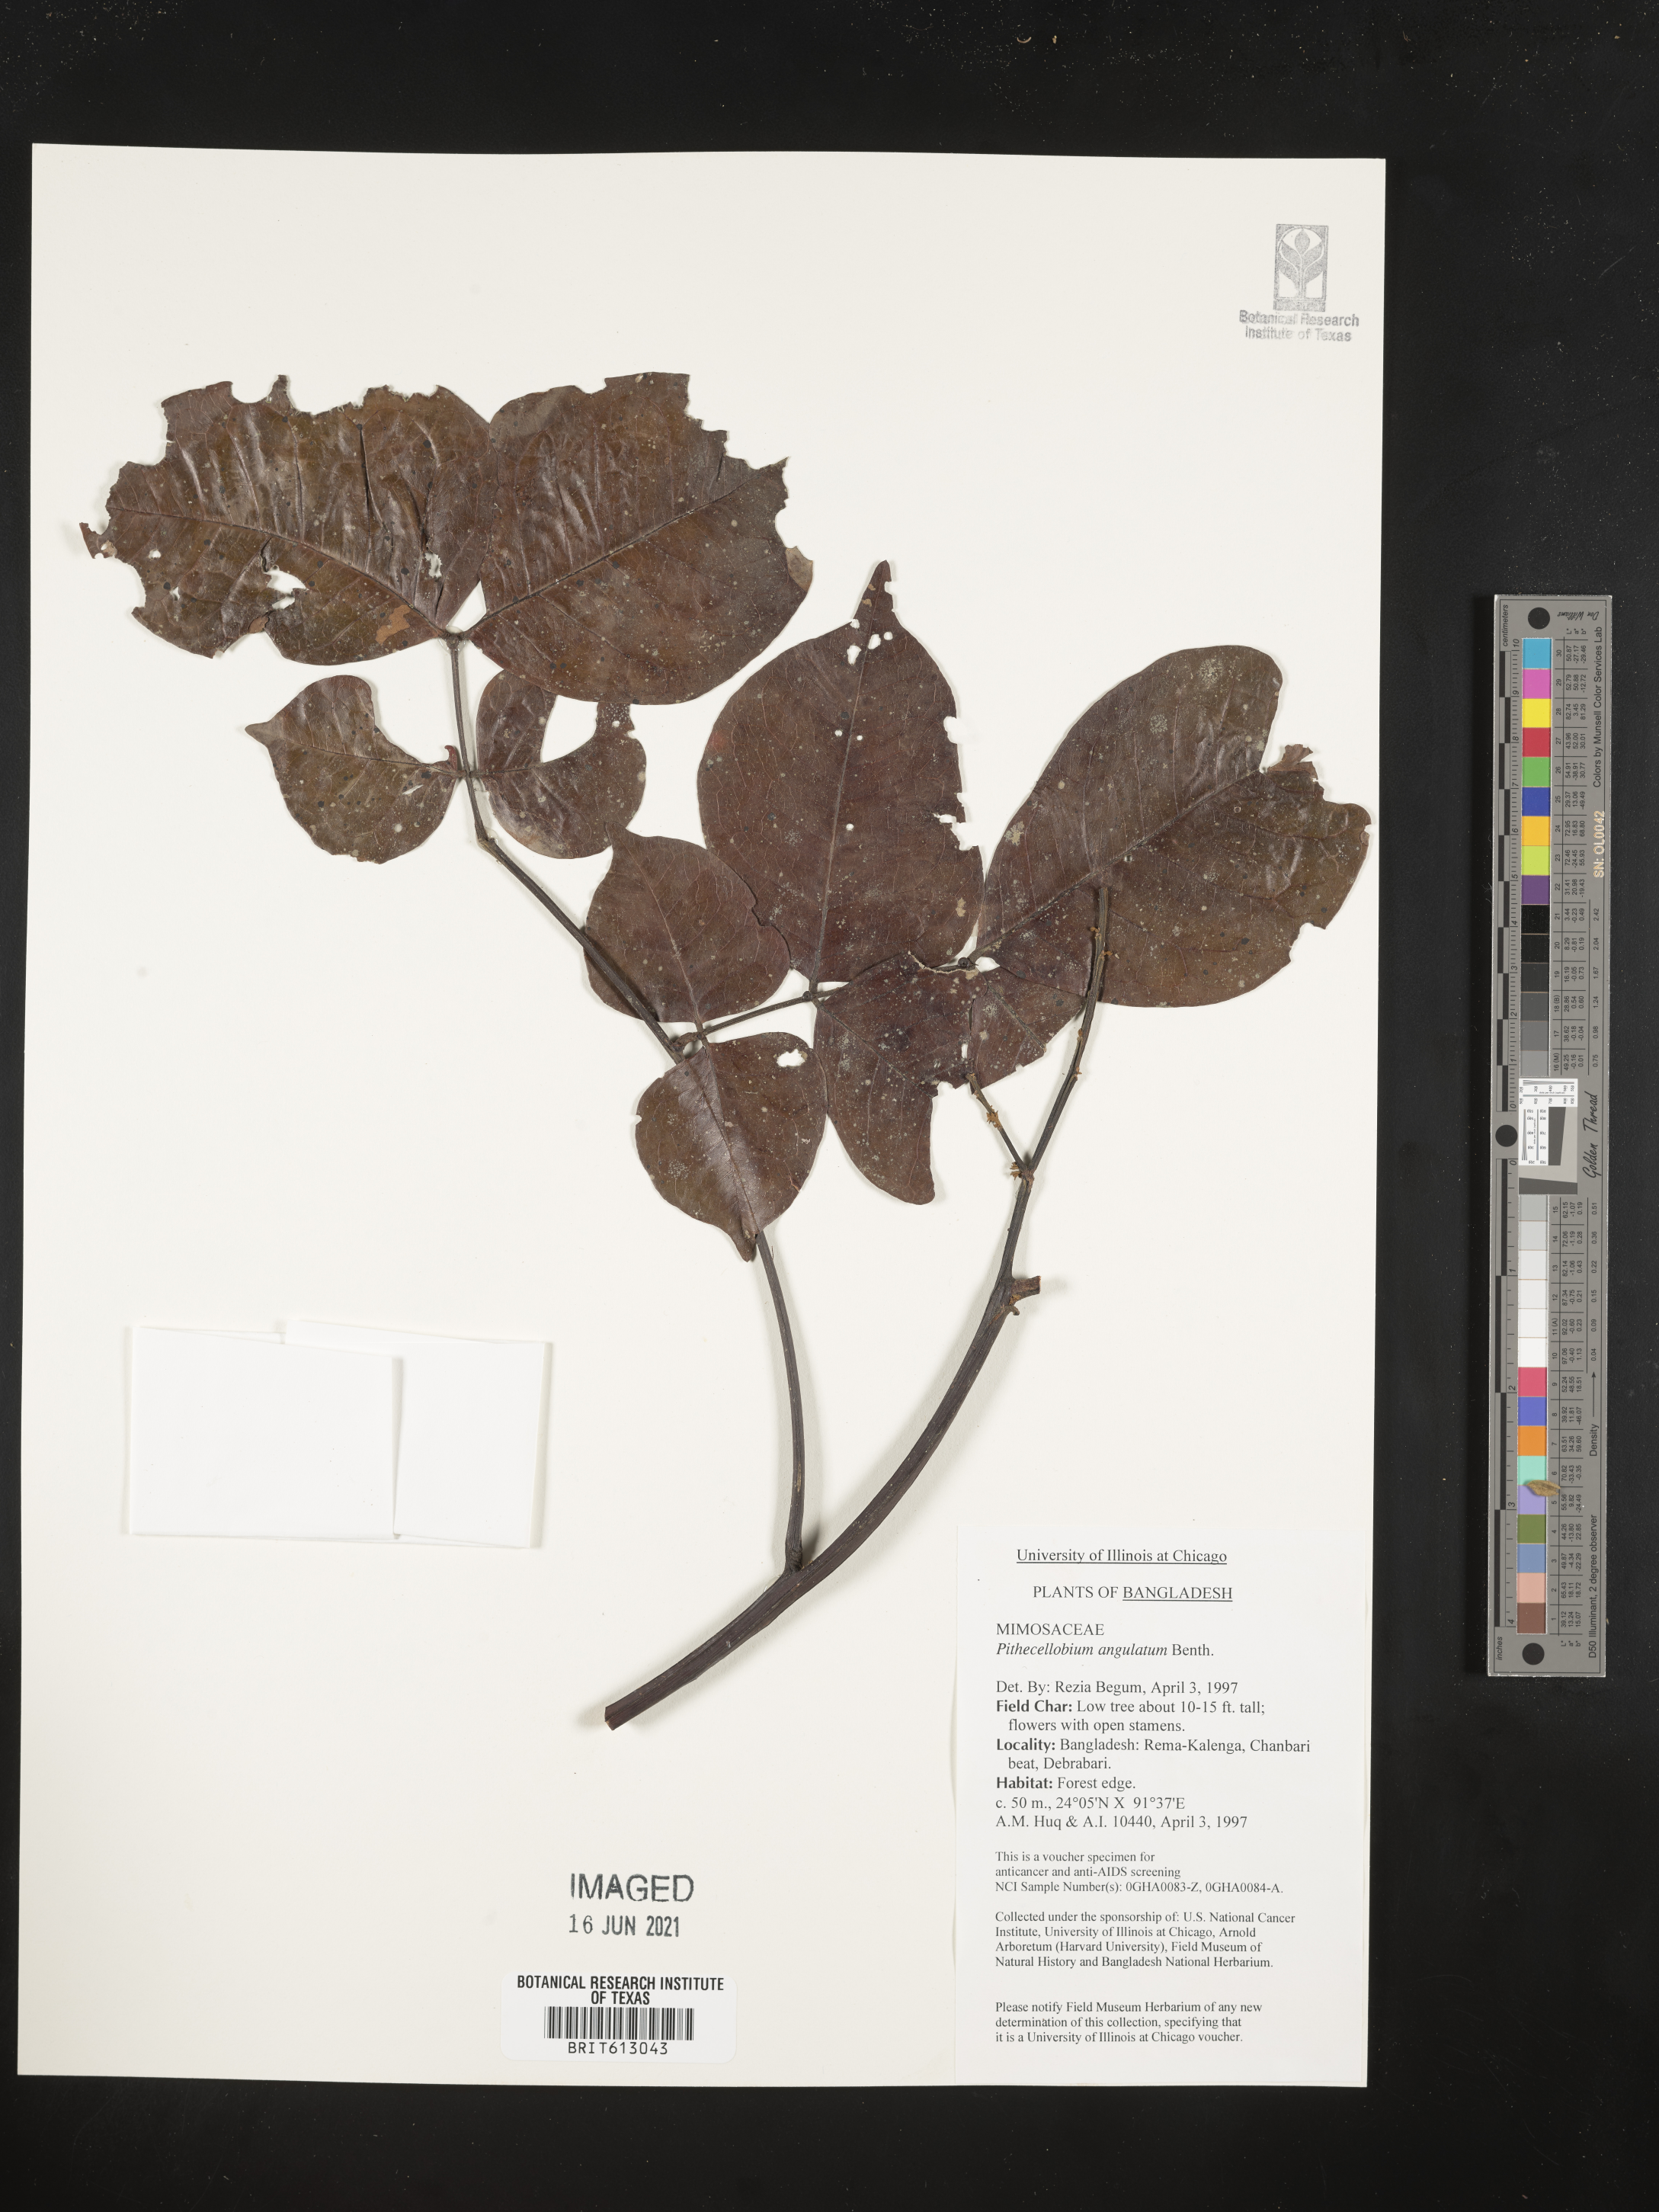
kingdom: Plantae
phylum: Tracheophyta
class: Magnoliopsida
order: Fabales
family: Fabaceae
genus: Archidendron
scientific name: Archidendron clypearia
